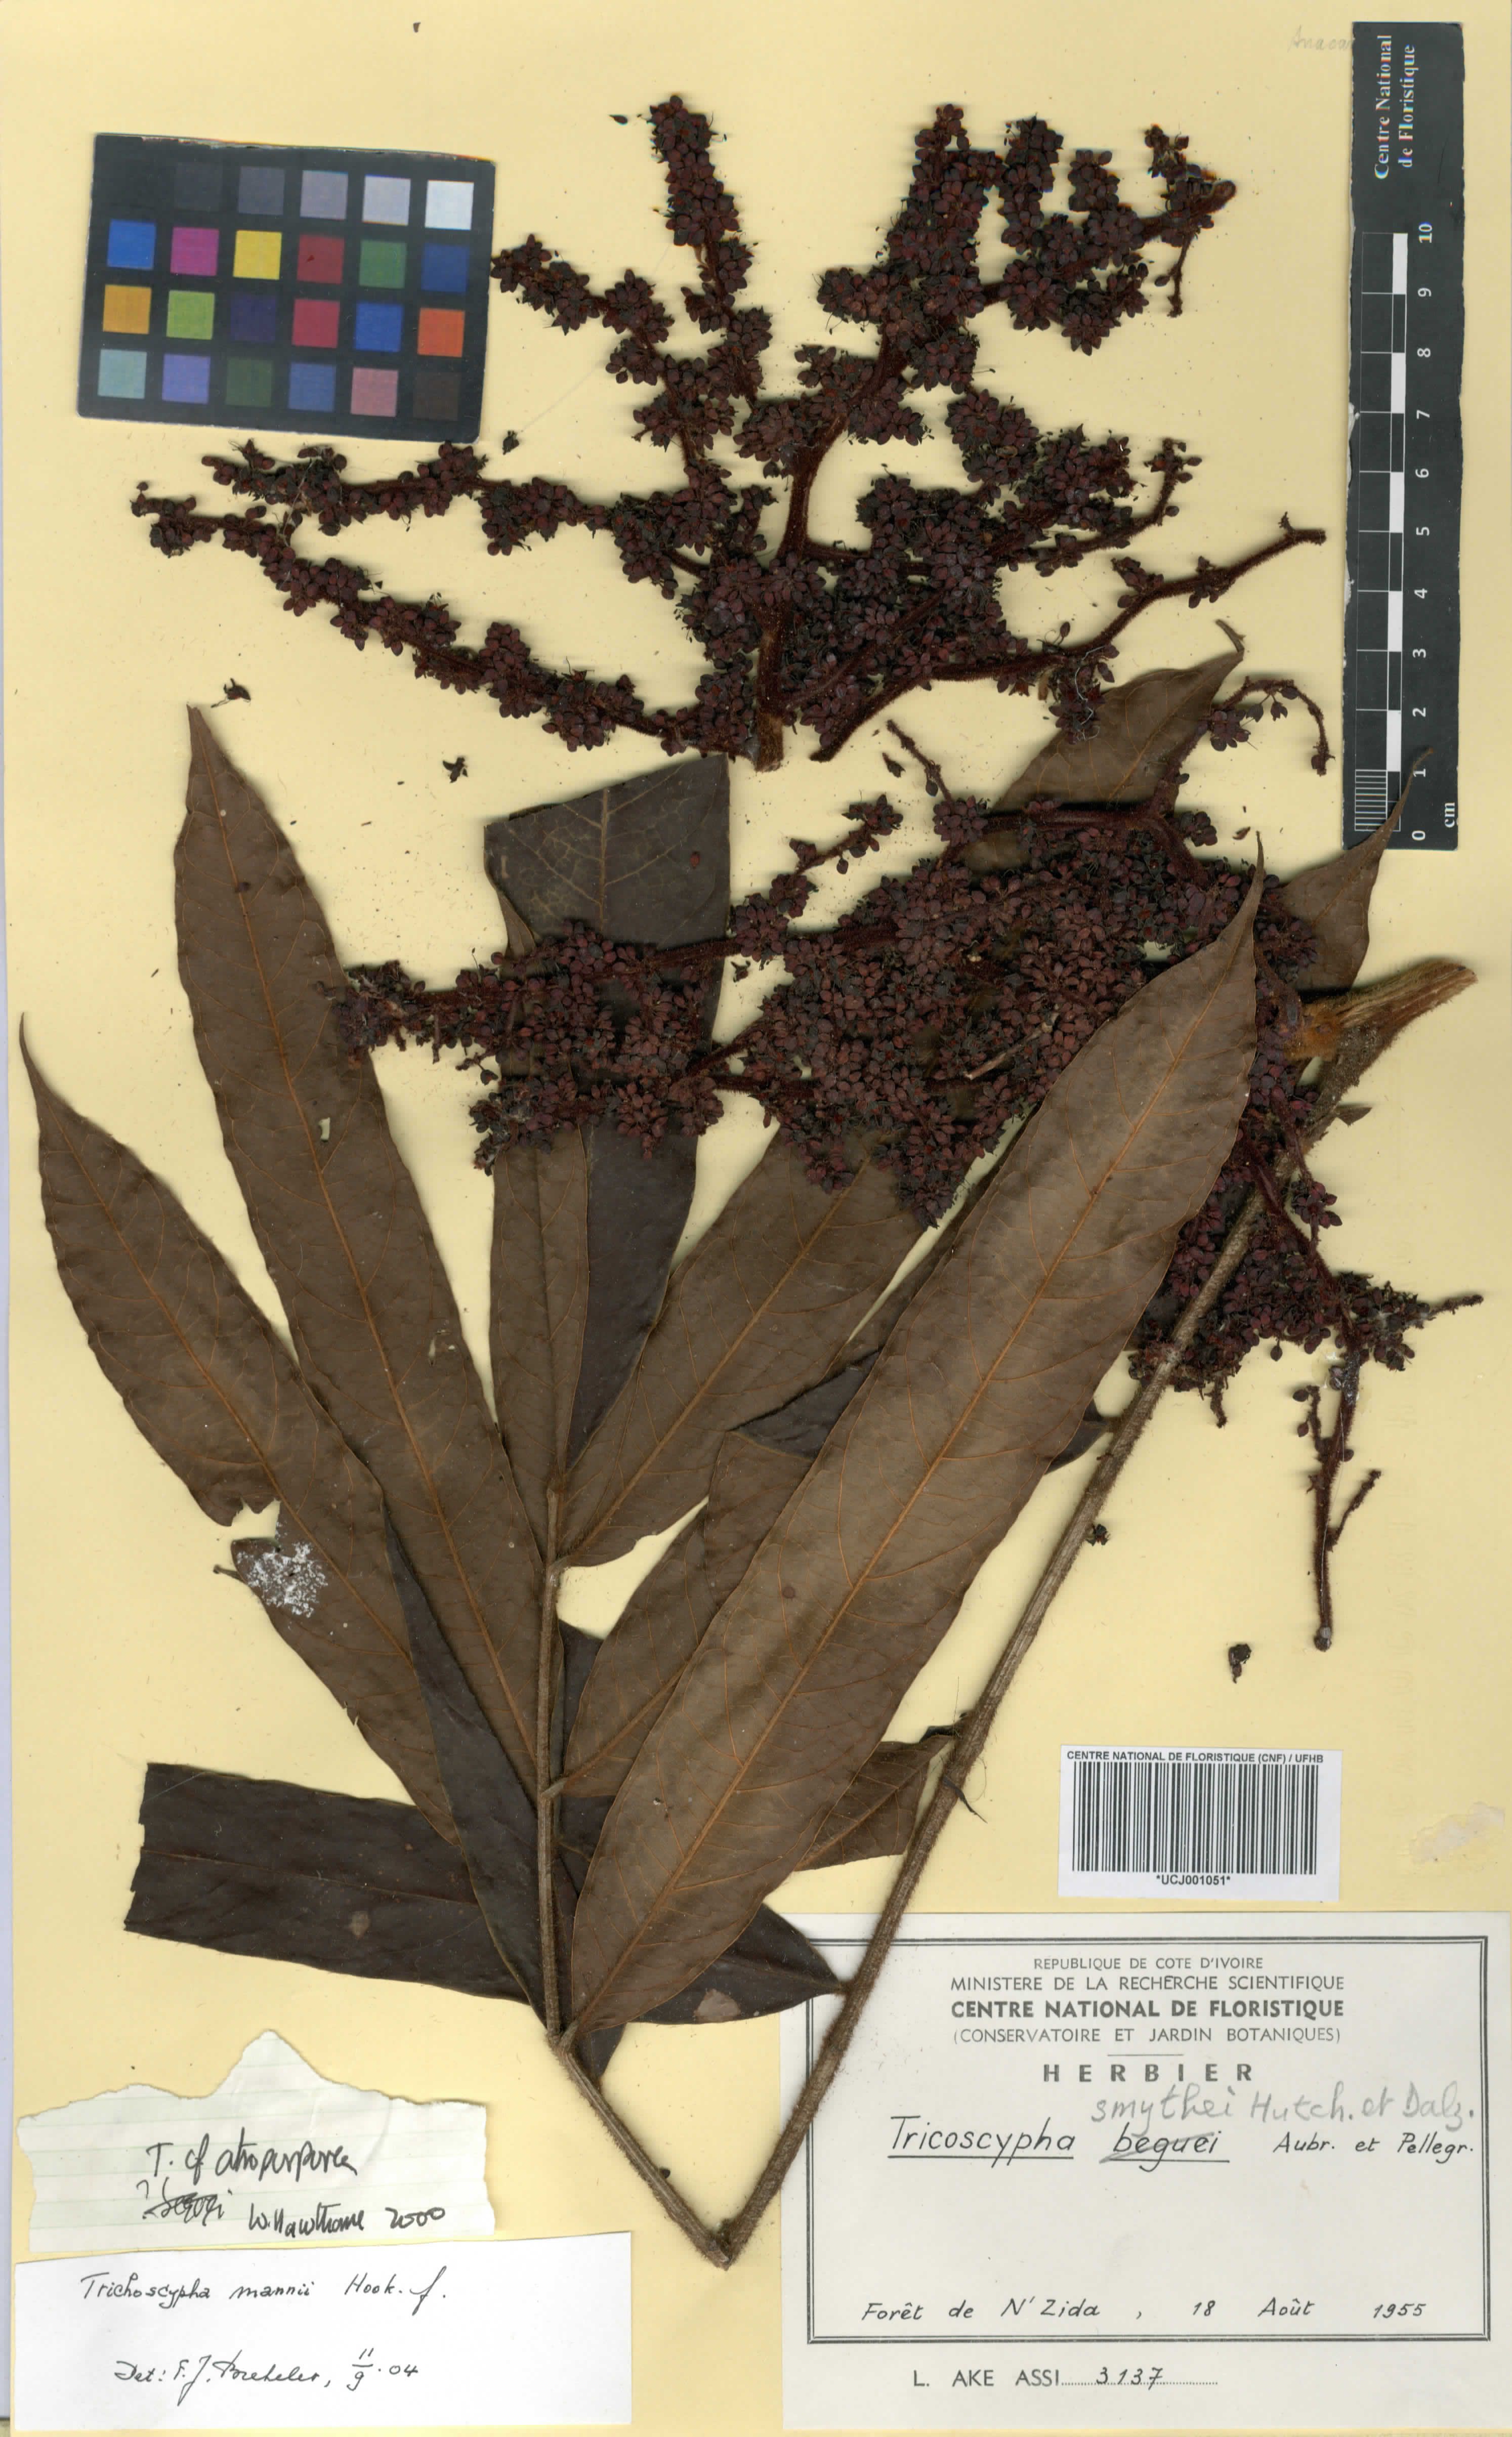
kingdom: Plantae
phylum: Tracheophyta
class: Magnoliopsida
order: Sapindales
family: Anacardiaceae
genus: Trichoscypha
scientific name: Trichoscypha smythei
